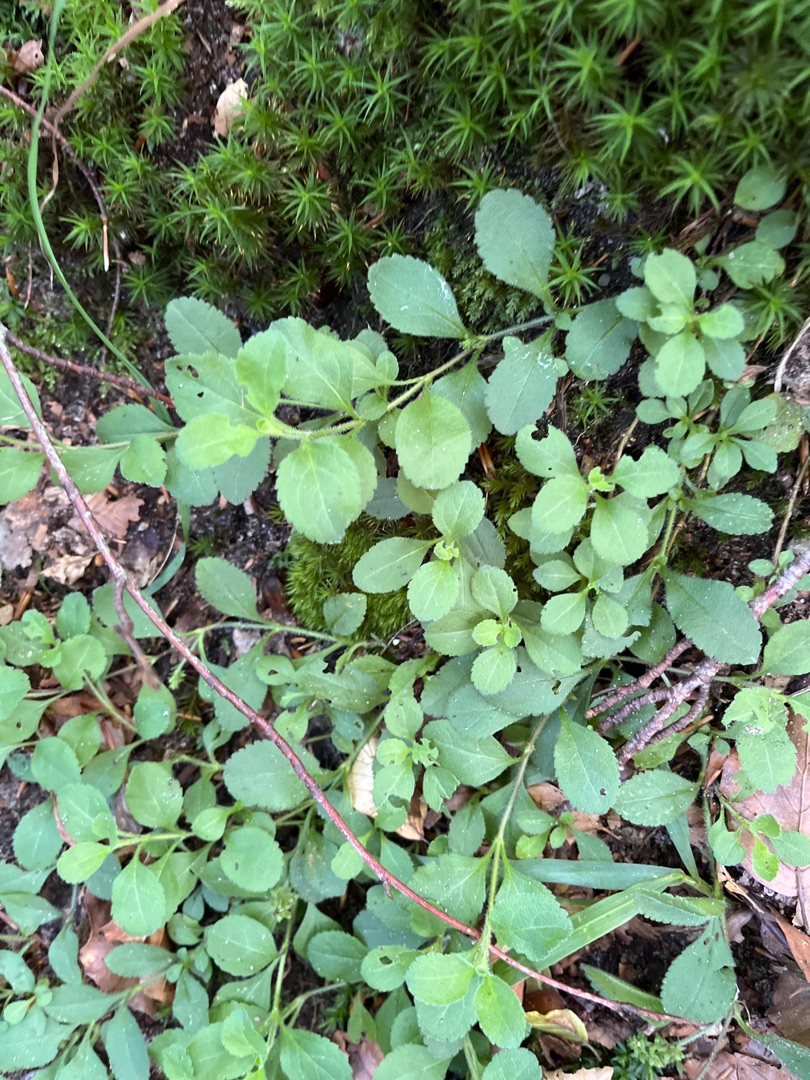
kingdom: Plantae
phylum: Tracheophyta
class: Magnoliopsida
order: Lamiales
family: Plantaginaceae
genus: Veronica
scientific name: Veronica officinalis
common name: Læge-ærenpris
